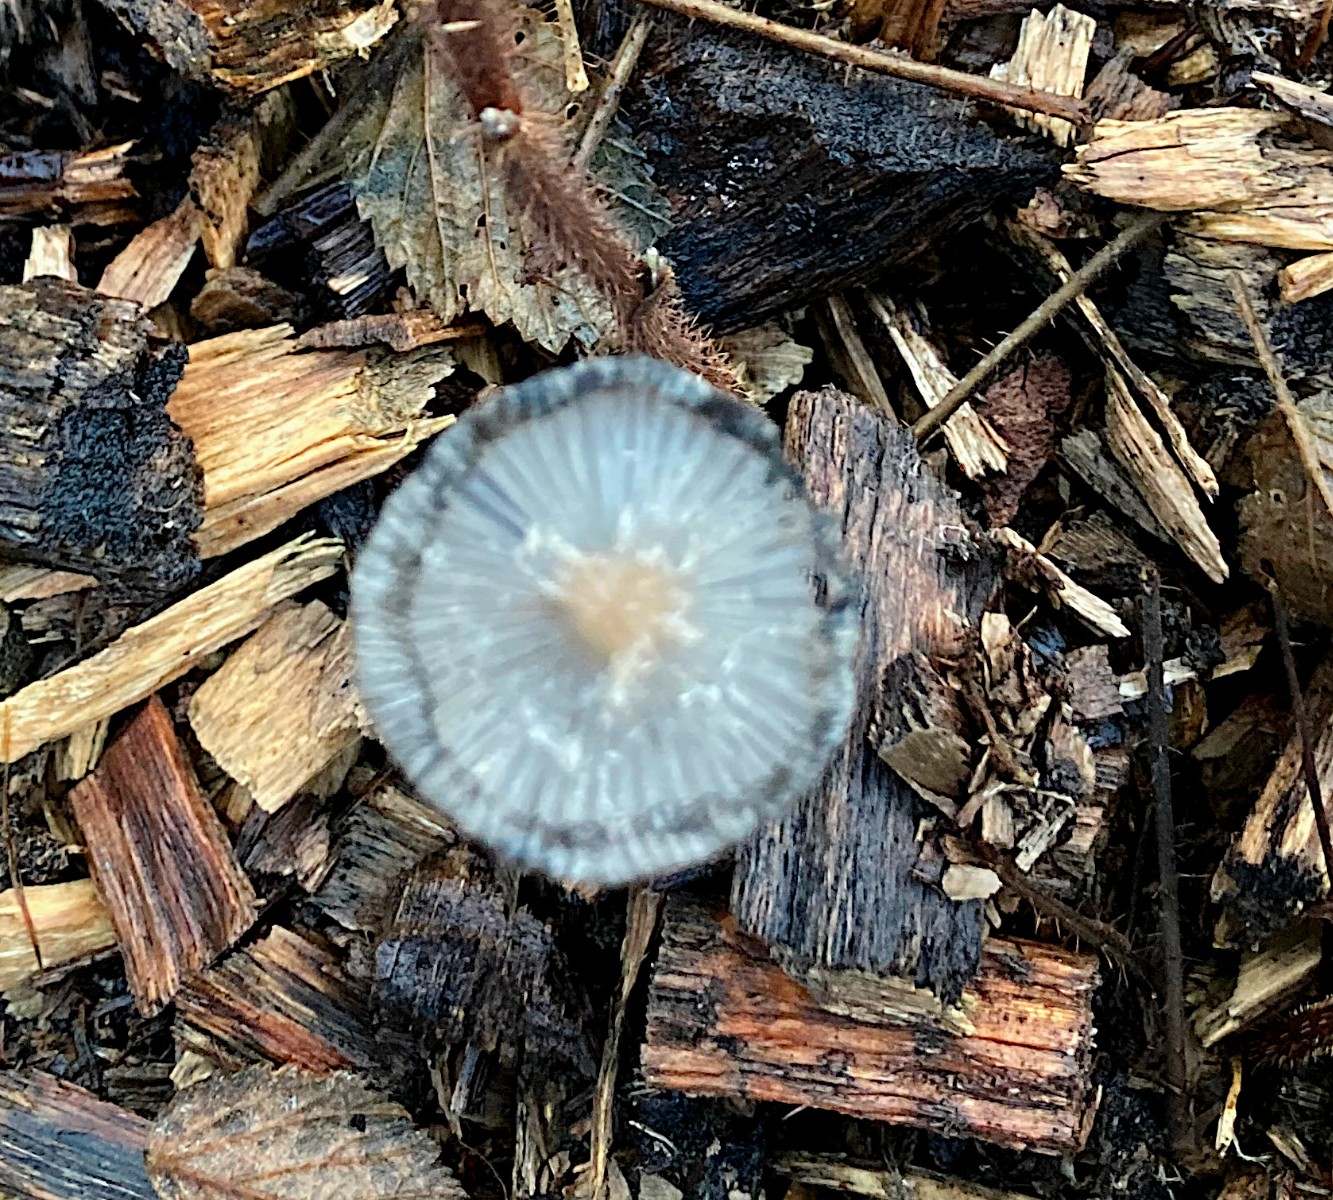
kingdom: Fungi
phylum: Basidiomycota
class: Agaricomycetes
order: Agaricales
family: Psathyrellaceae
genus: Coprinopsis
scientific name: Coprinopsis lagopus
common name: dunstokket blækhat
